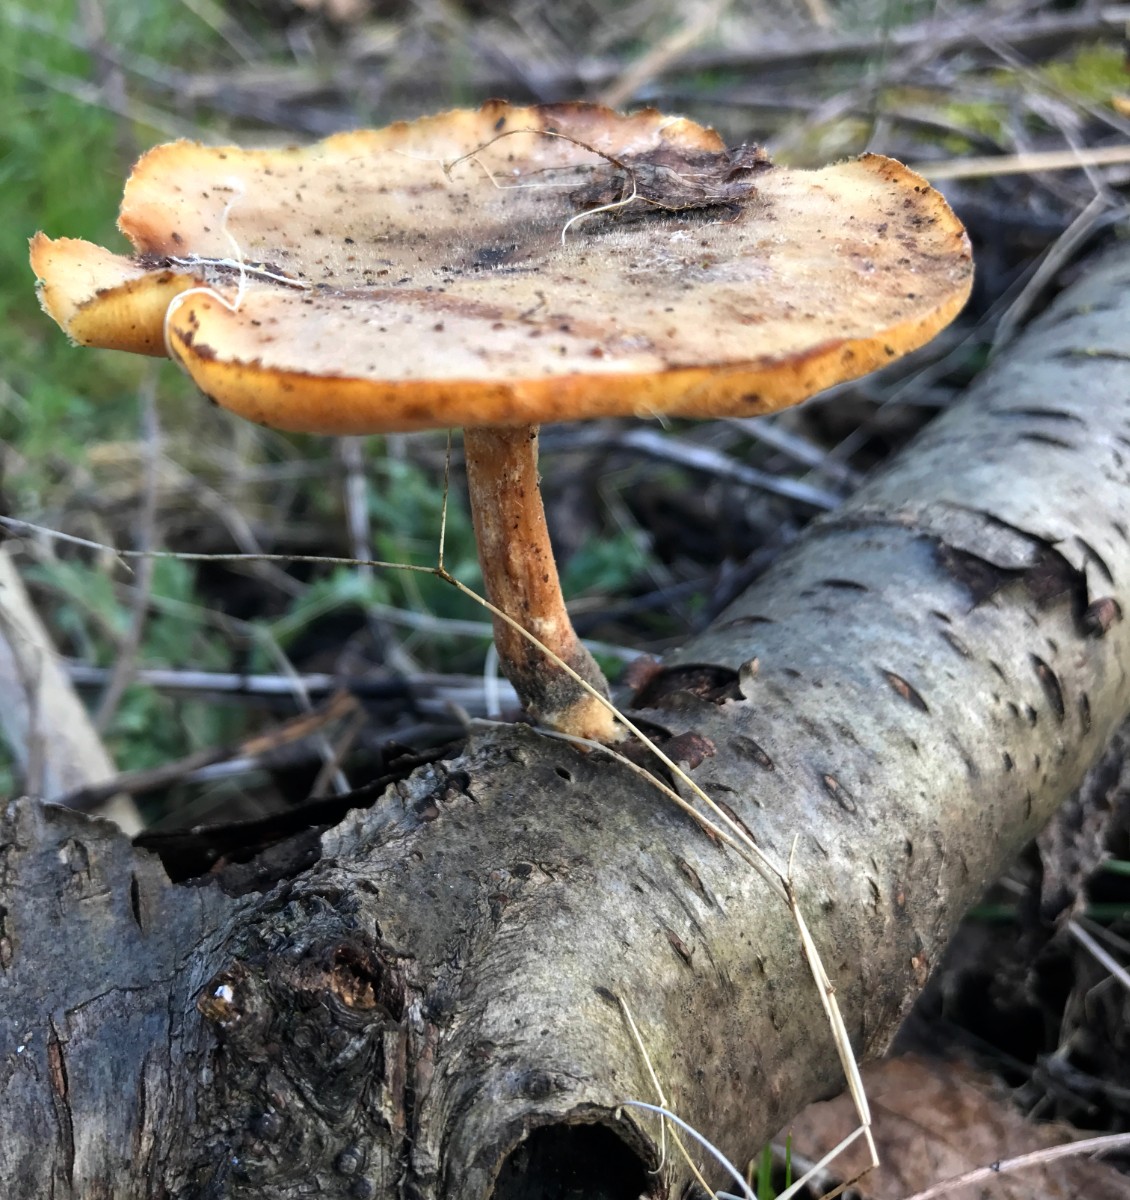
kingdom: Fungi
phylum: Basidiomycota
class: Agaricomycetes
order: Polyporales
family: Polyporaceae
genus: Cerioporus
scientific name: Cerioporus varius
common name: foranderlig stilkporesvamp
